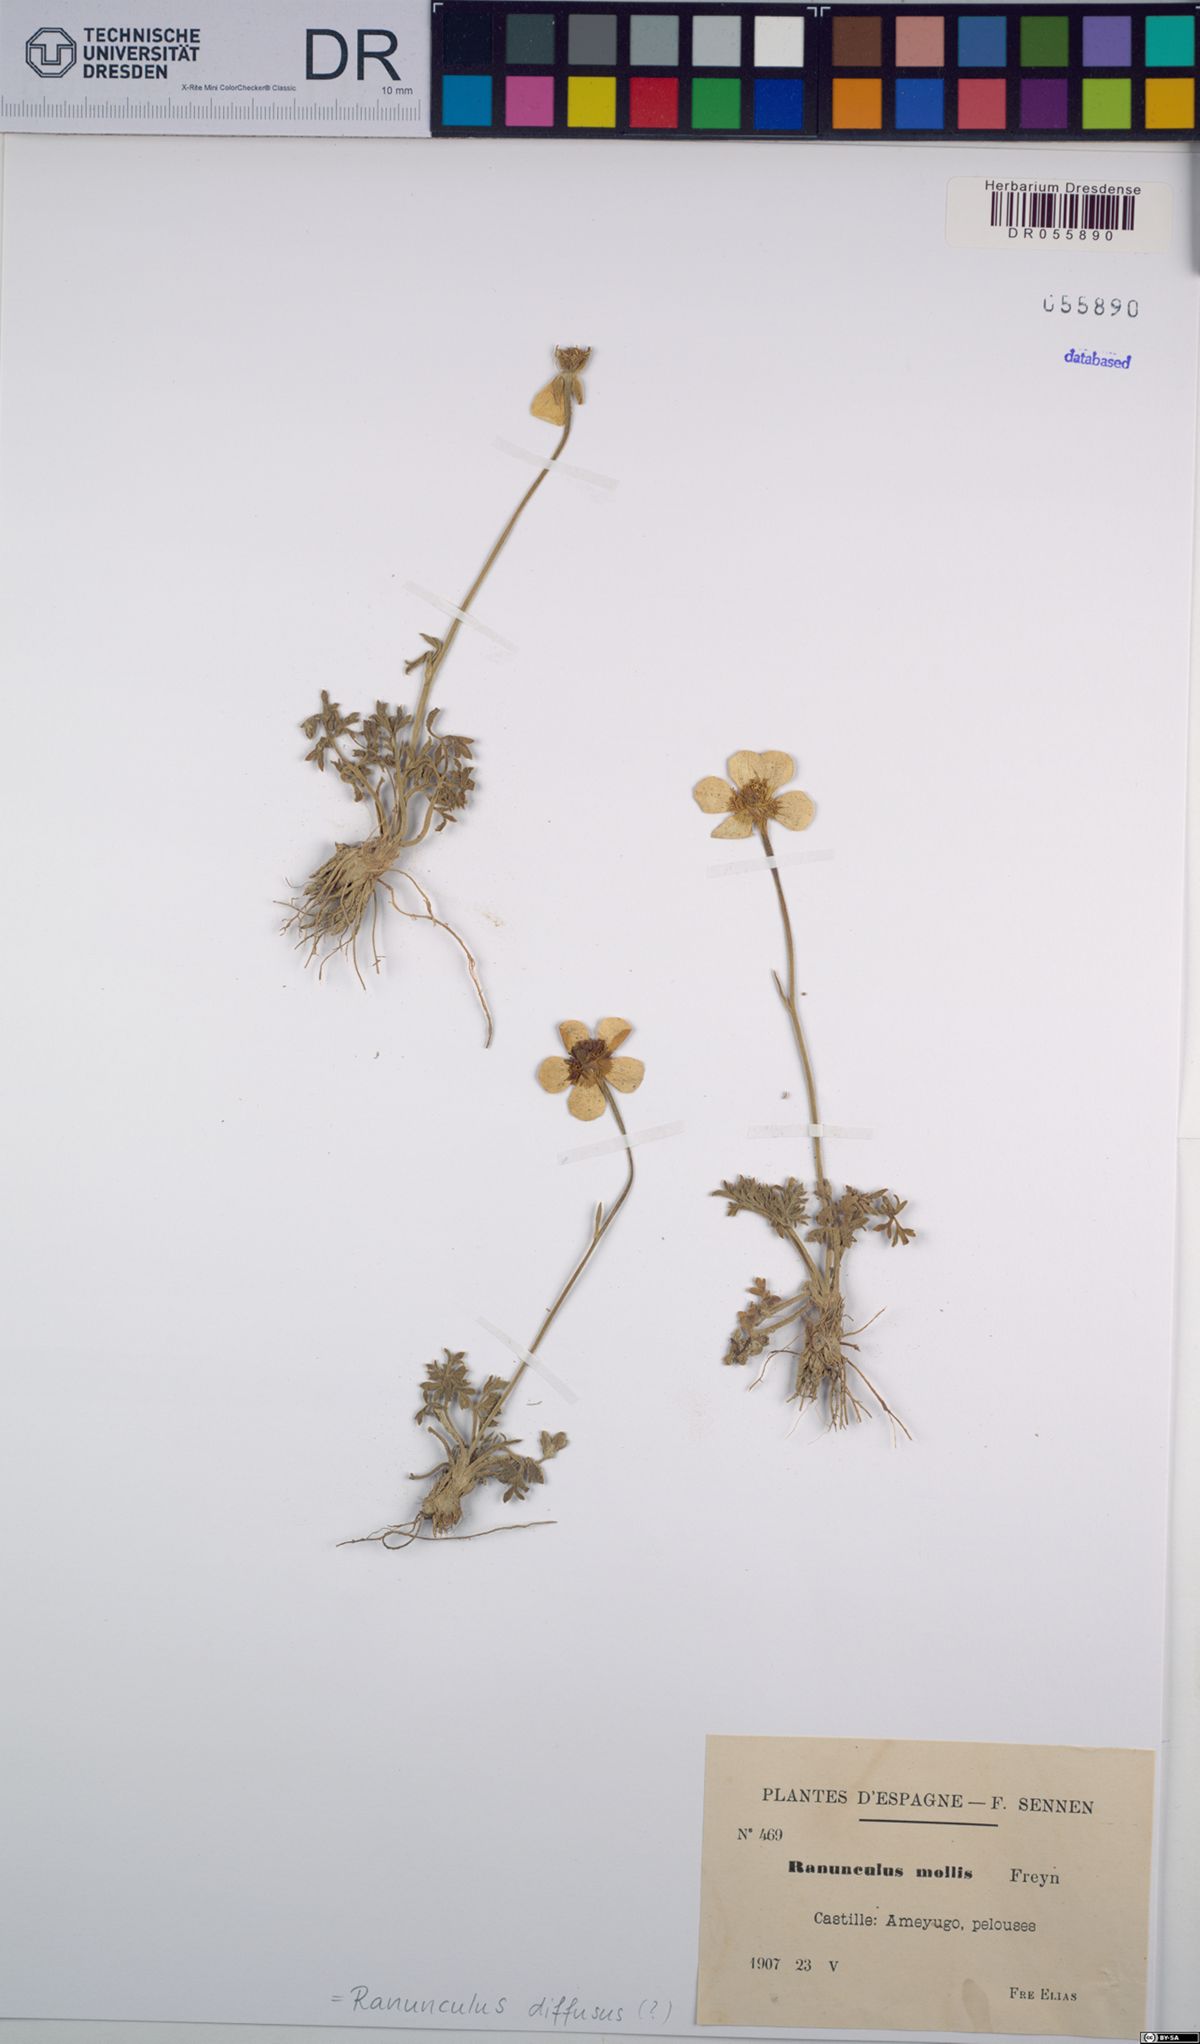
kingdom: Plantae
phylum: Tracheophyta
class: Magnoliopsida
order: Ranunculales
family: Ranunculaceae
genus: Ranunculus
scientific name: Ranunculus diffusus
